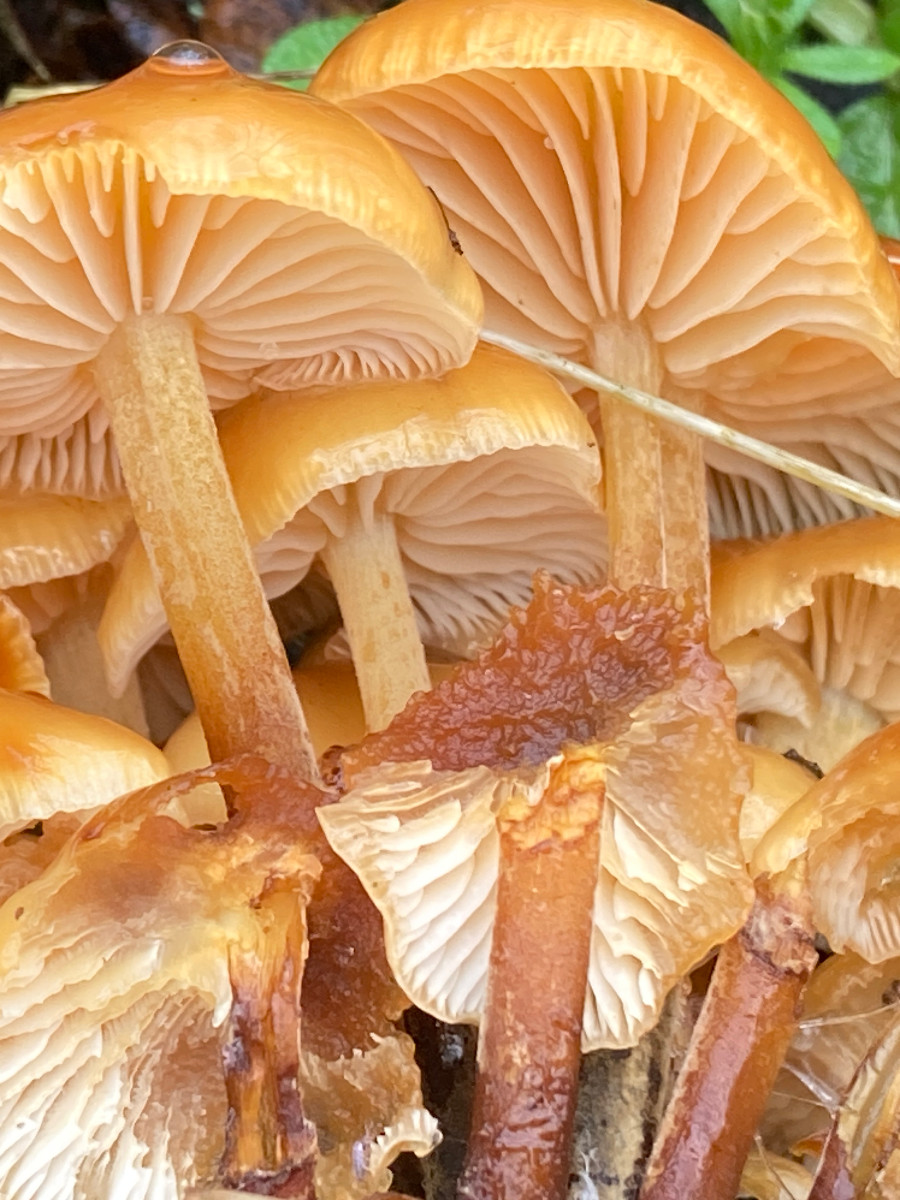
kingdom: Fungi
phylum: Basidiomycota
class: Agaricomycetes
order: Agaricales
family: Physalacriaceae
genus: Flammulina
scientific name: Flammulina velutipes
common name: gul fløjlsfod
